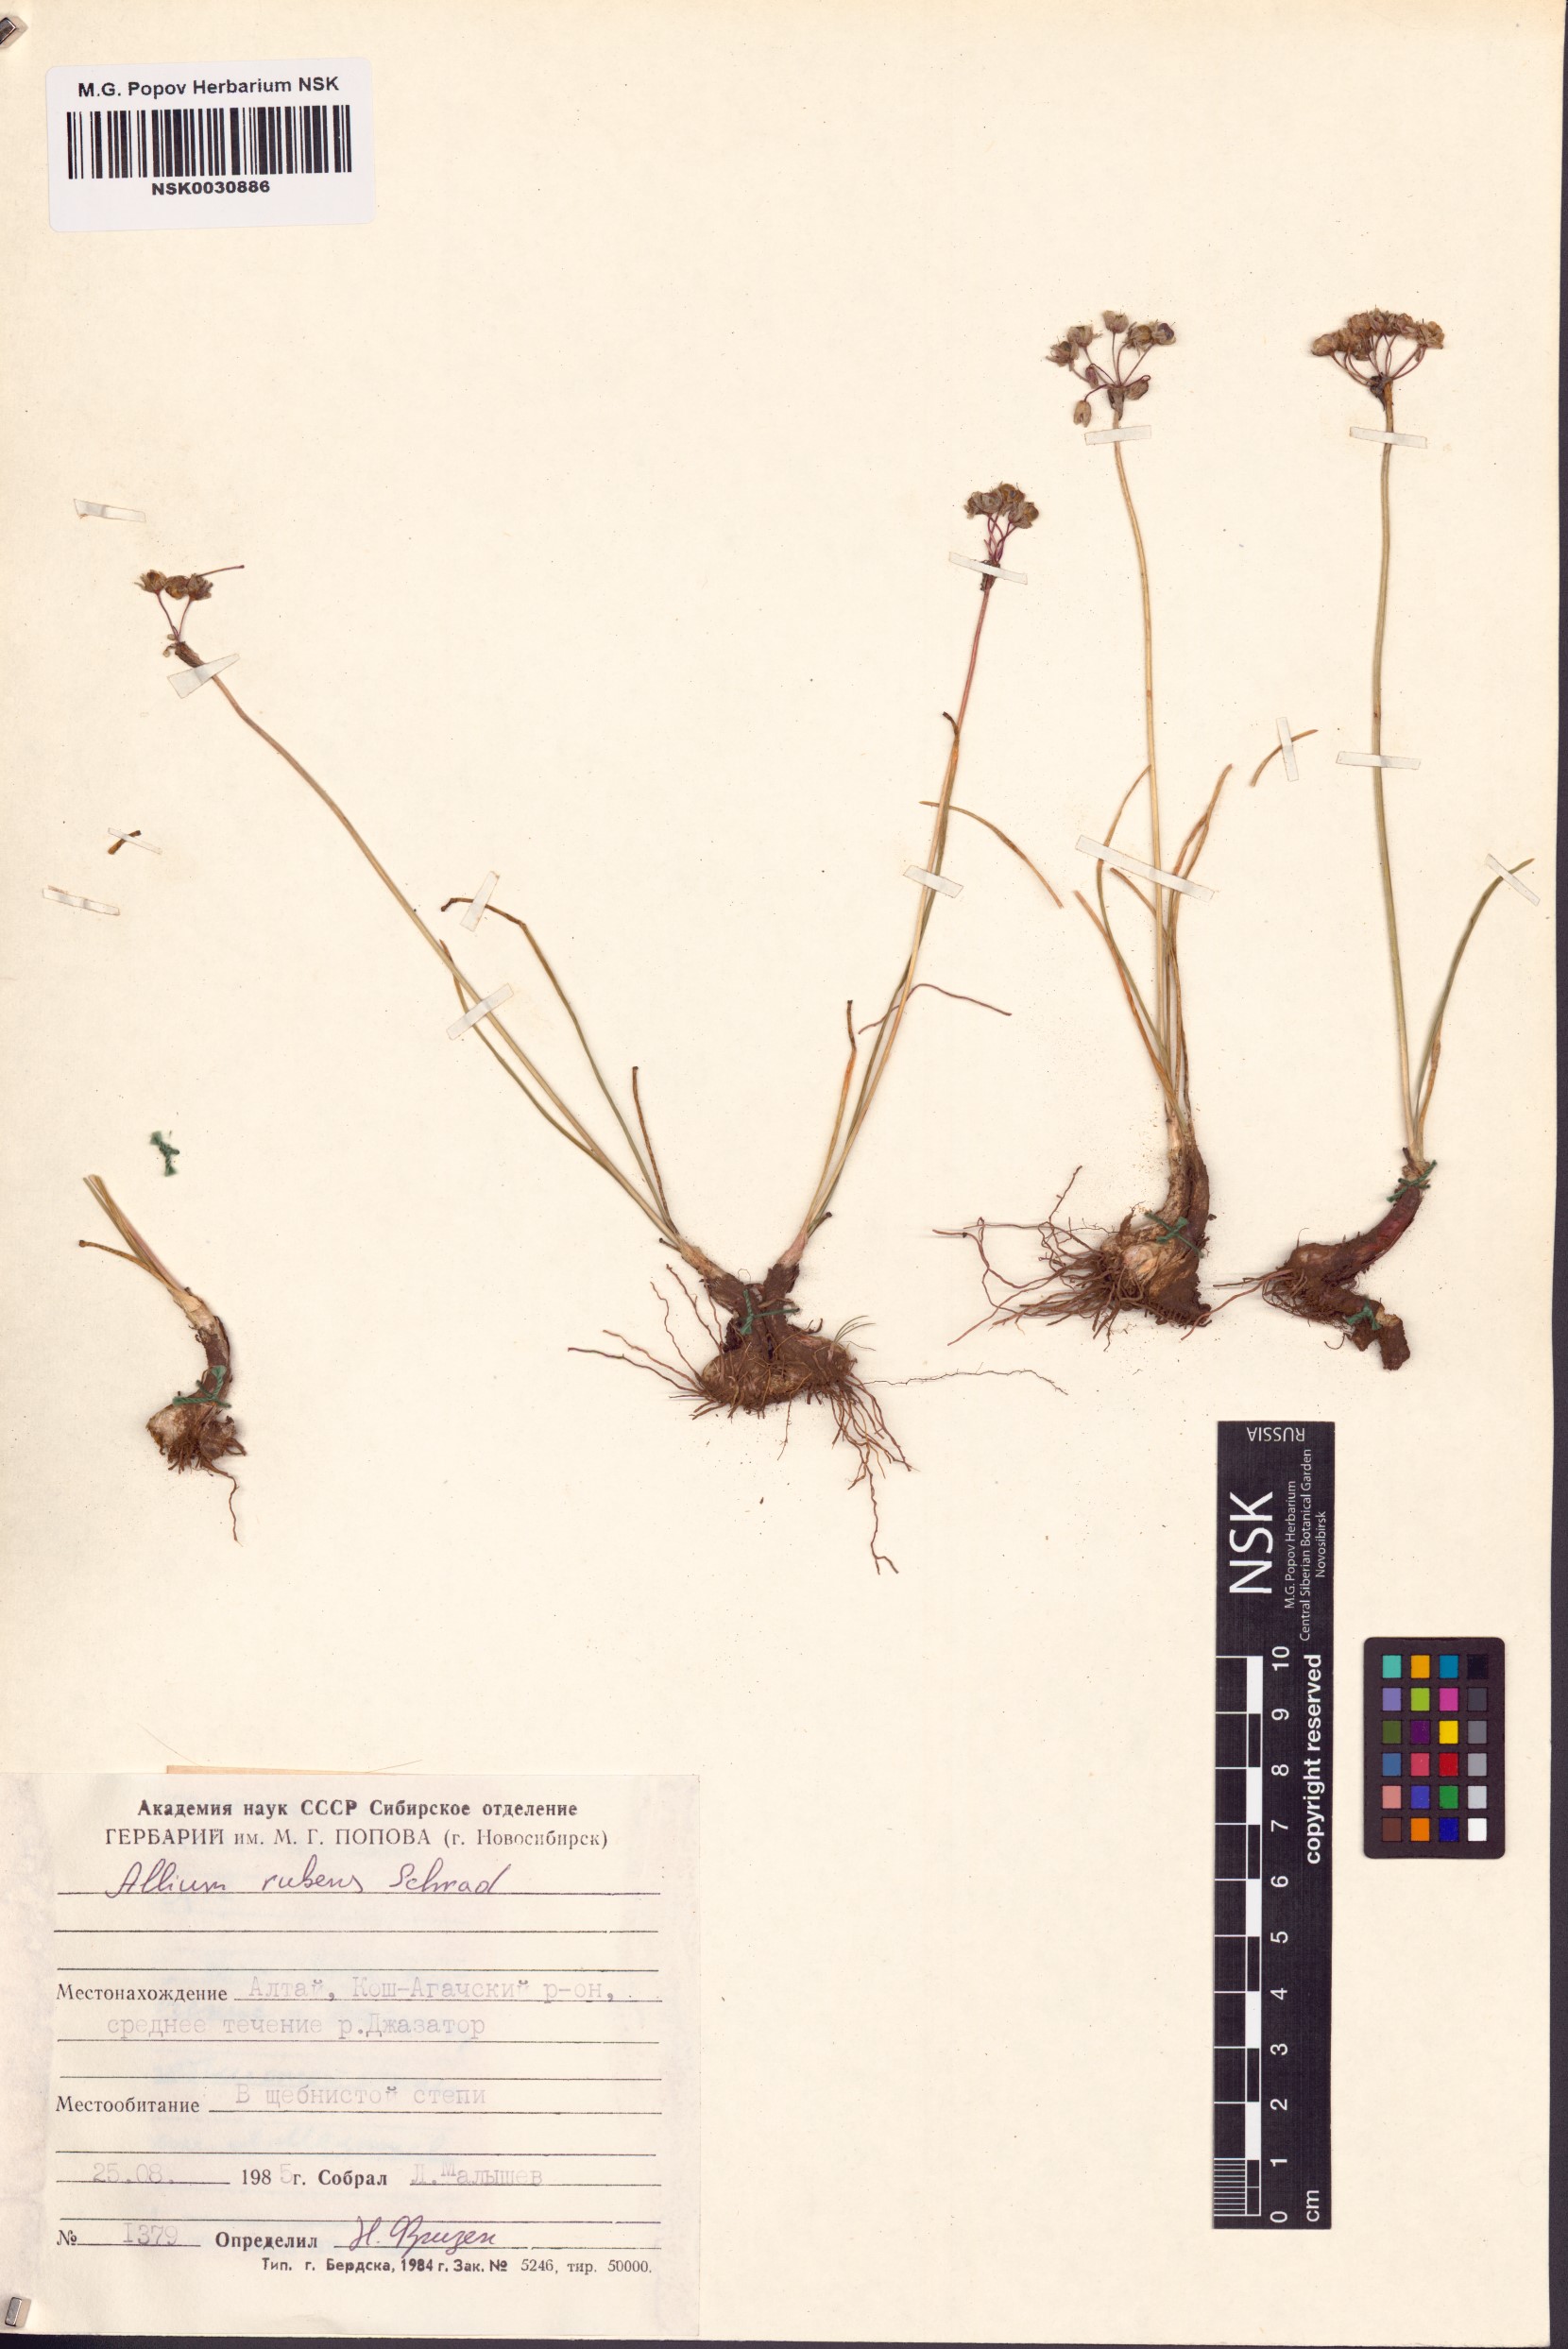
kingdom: Plantae
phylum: Tracheophyta
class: Liliopsida
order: Asparagales
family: Amaryllidaceae
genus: Allium
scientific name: Allium rubens
